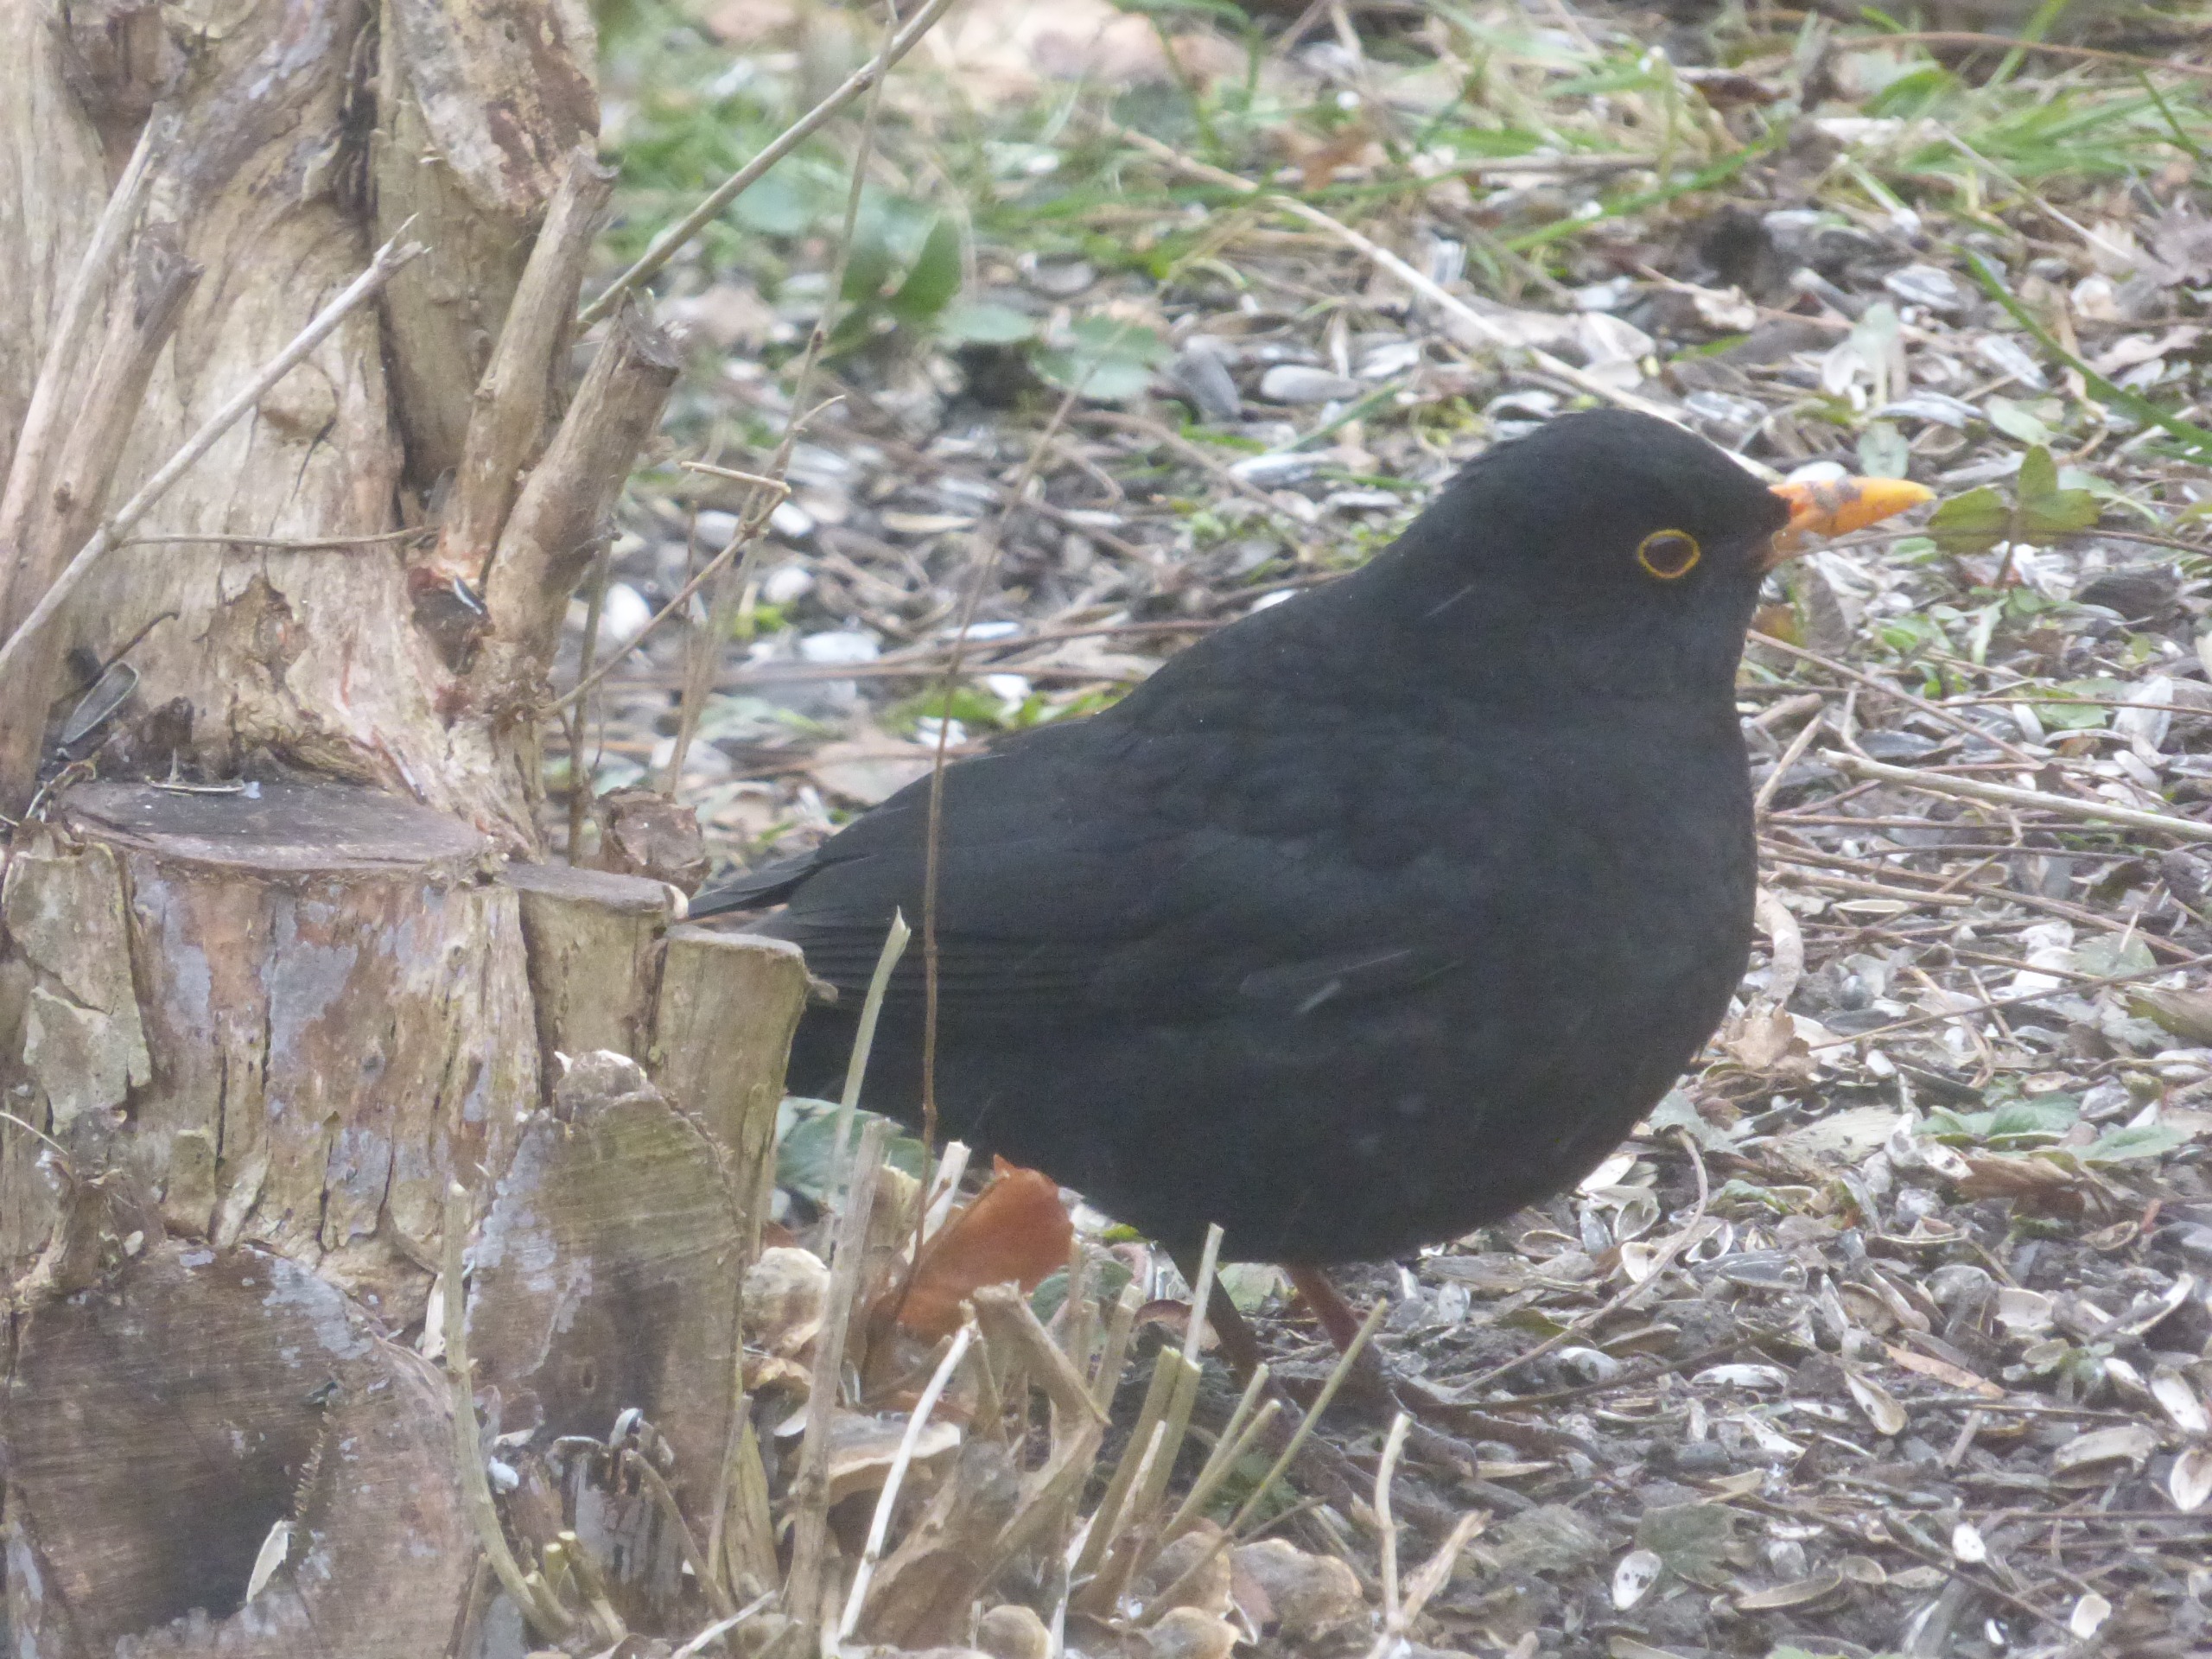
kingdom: Animalia
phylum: Chordata
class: Aves
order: Passeriformes
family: Turdidae
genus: Turdus
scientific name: Turdus merula
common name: Solsort
